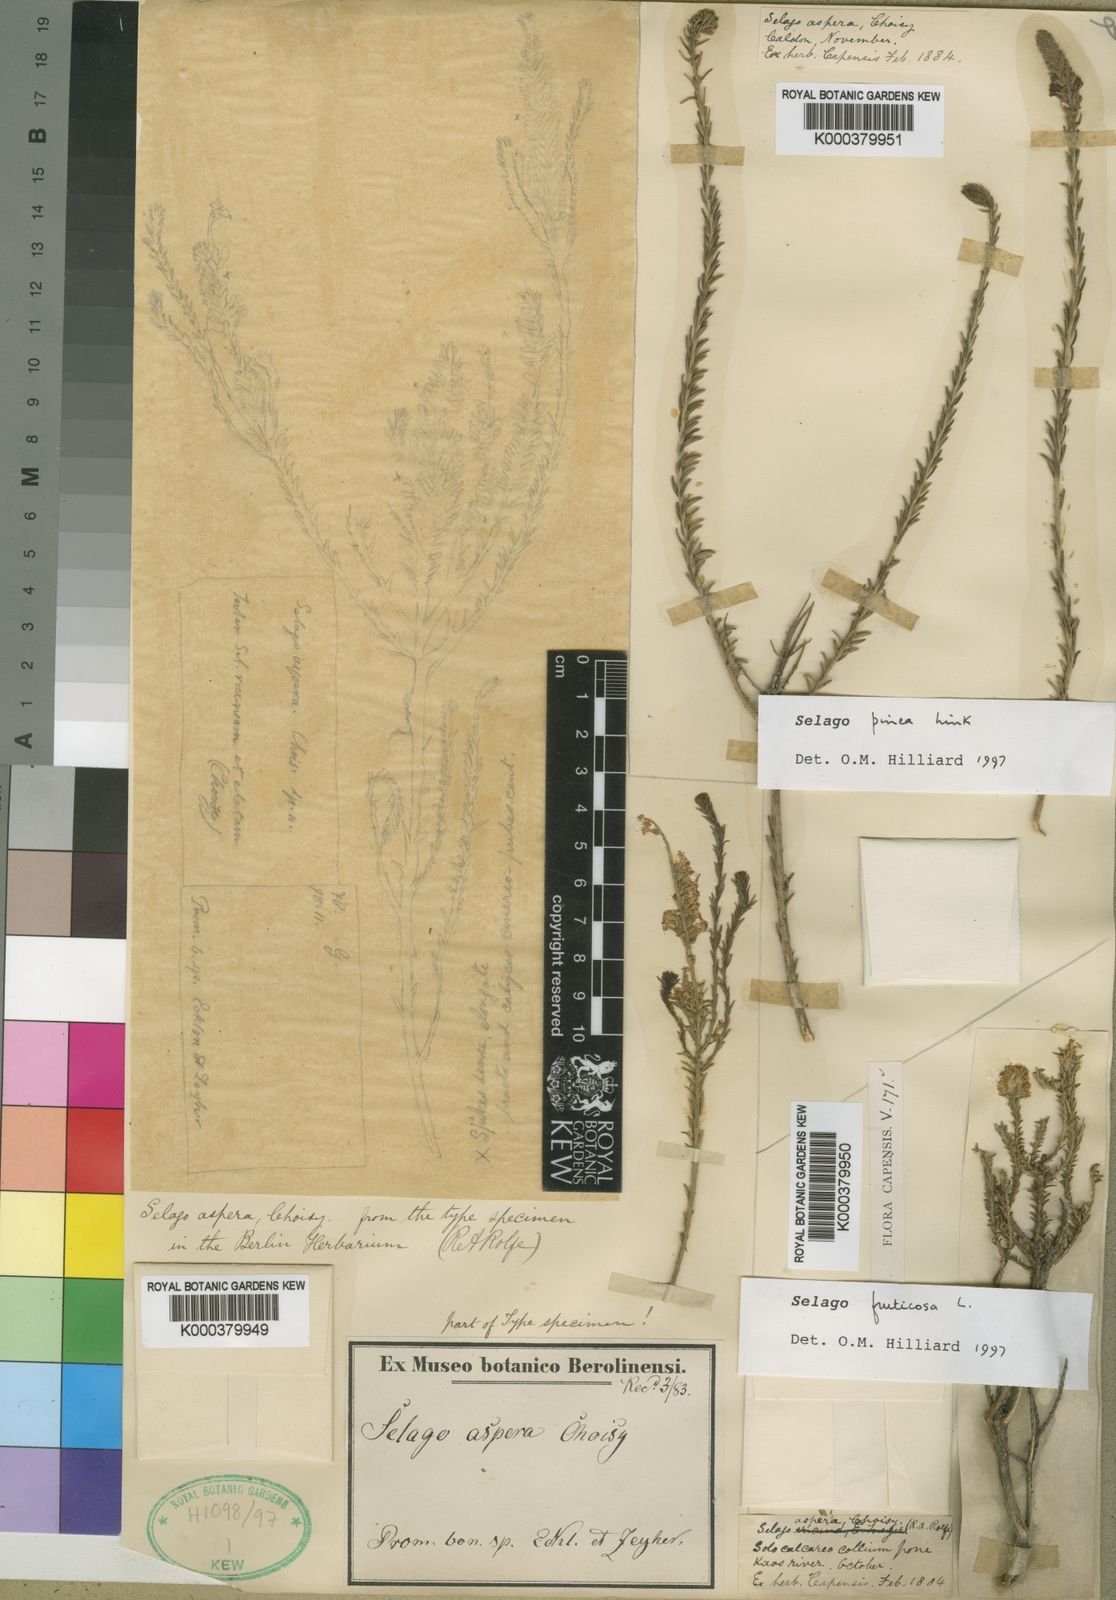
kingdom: Plantae
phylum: Tracheophyta
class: Magnoliopsida
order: Lamiales
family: Scrophulariaceae
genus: Selago
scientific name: Selago fruticosa
